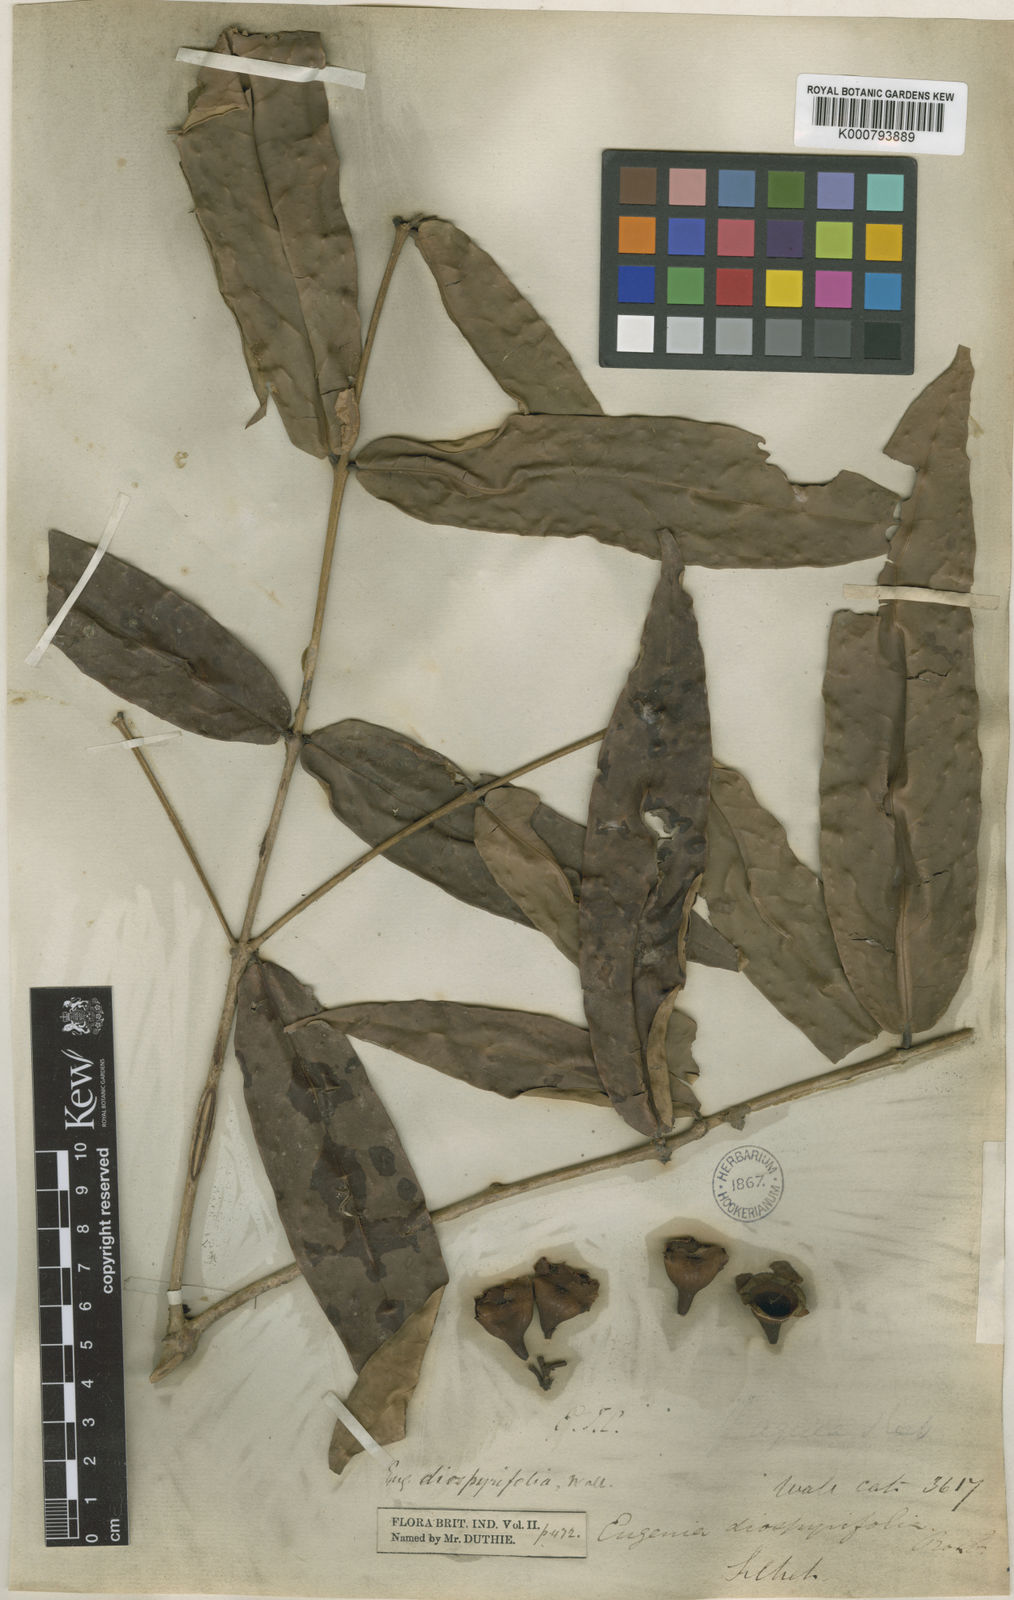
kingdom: Plantae
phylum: Tracheophyta
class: Magnoliopsida
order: Myrtales
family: Myrtaceae
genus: Syzygium
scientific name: Syzygium diospyrifolium
